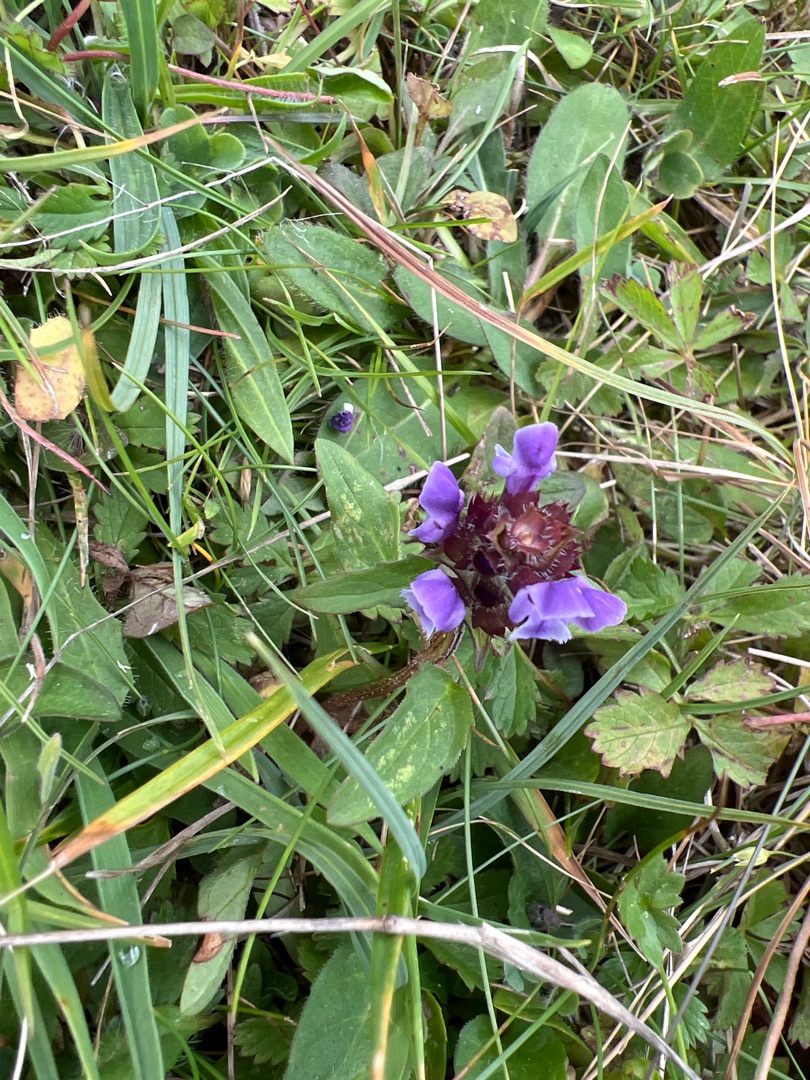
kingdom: Plantae
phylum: Tracheophyta
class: Magnoliopsida
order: Lamiales
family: Lamiaceae
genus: Prunella
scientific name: Prunella vulgaris
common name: Almindelig brunelle
